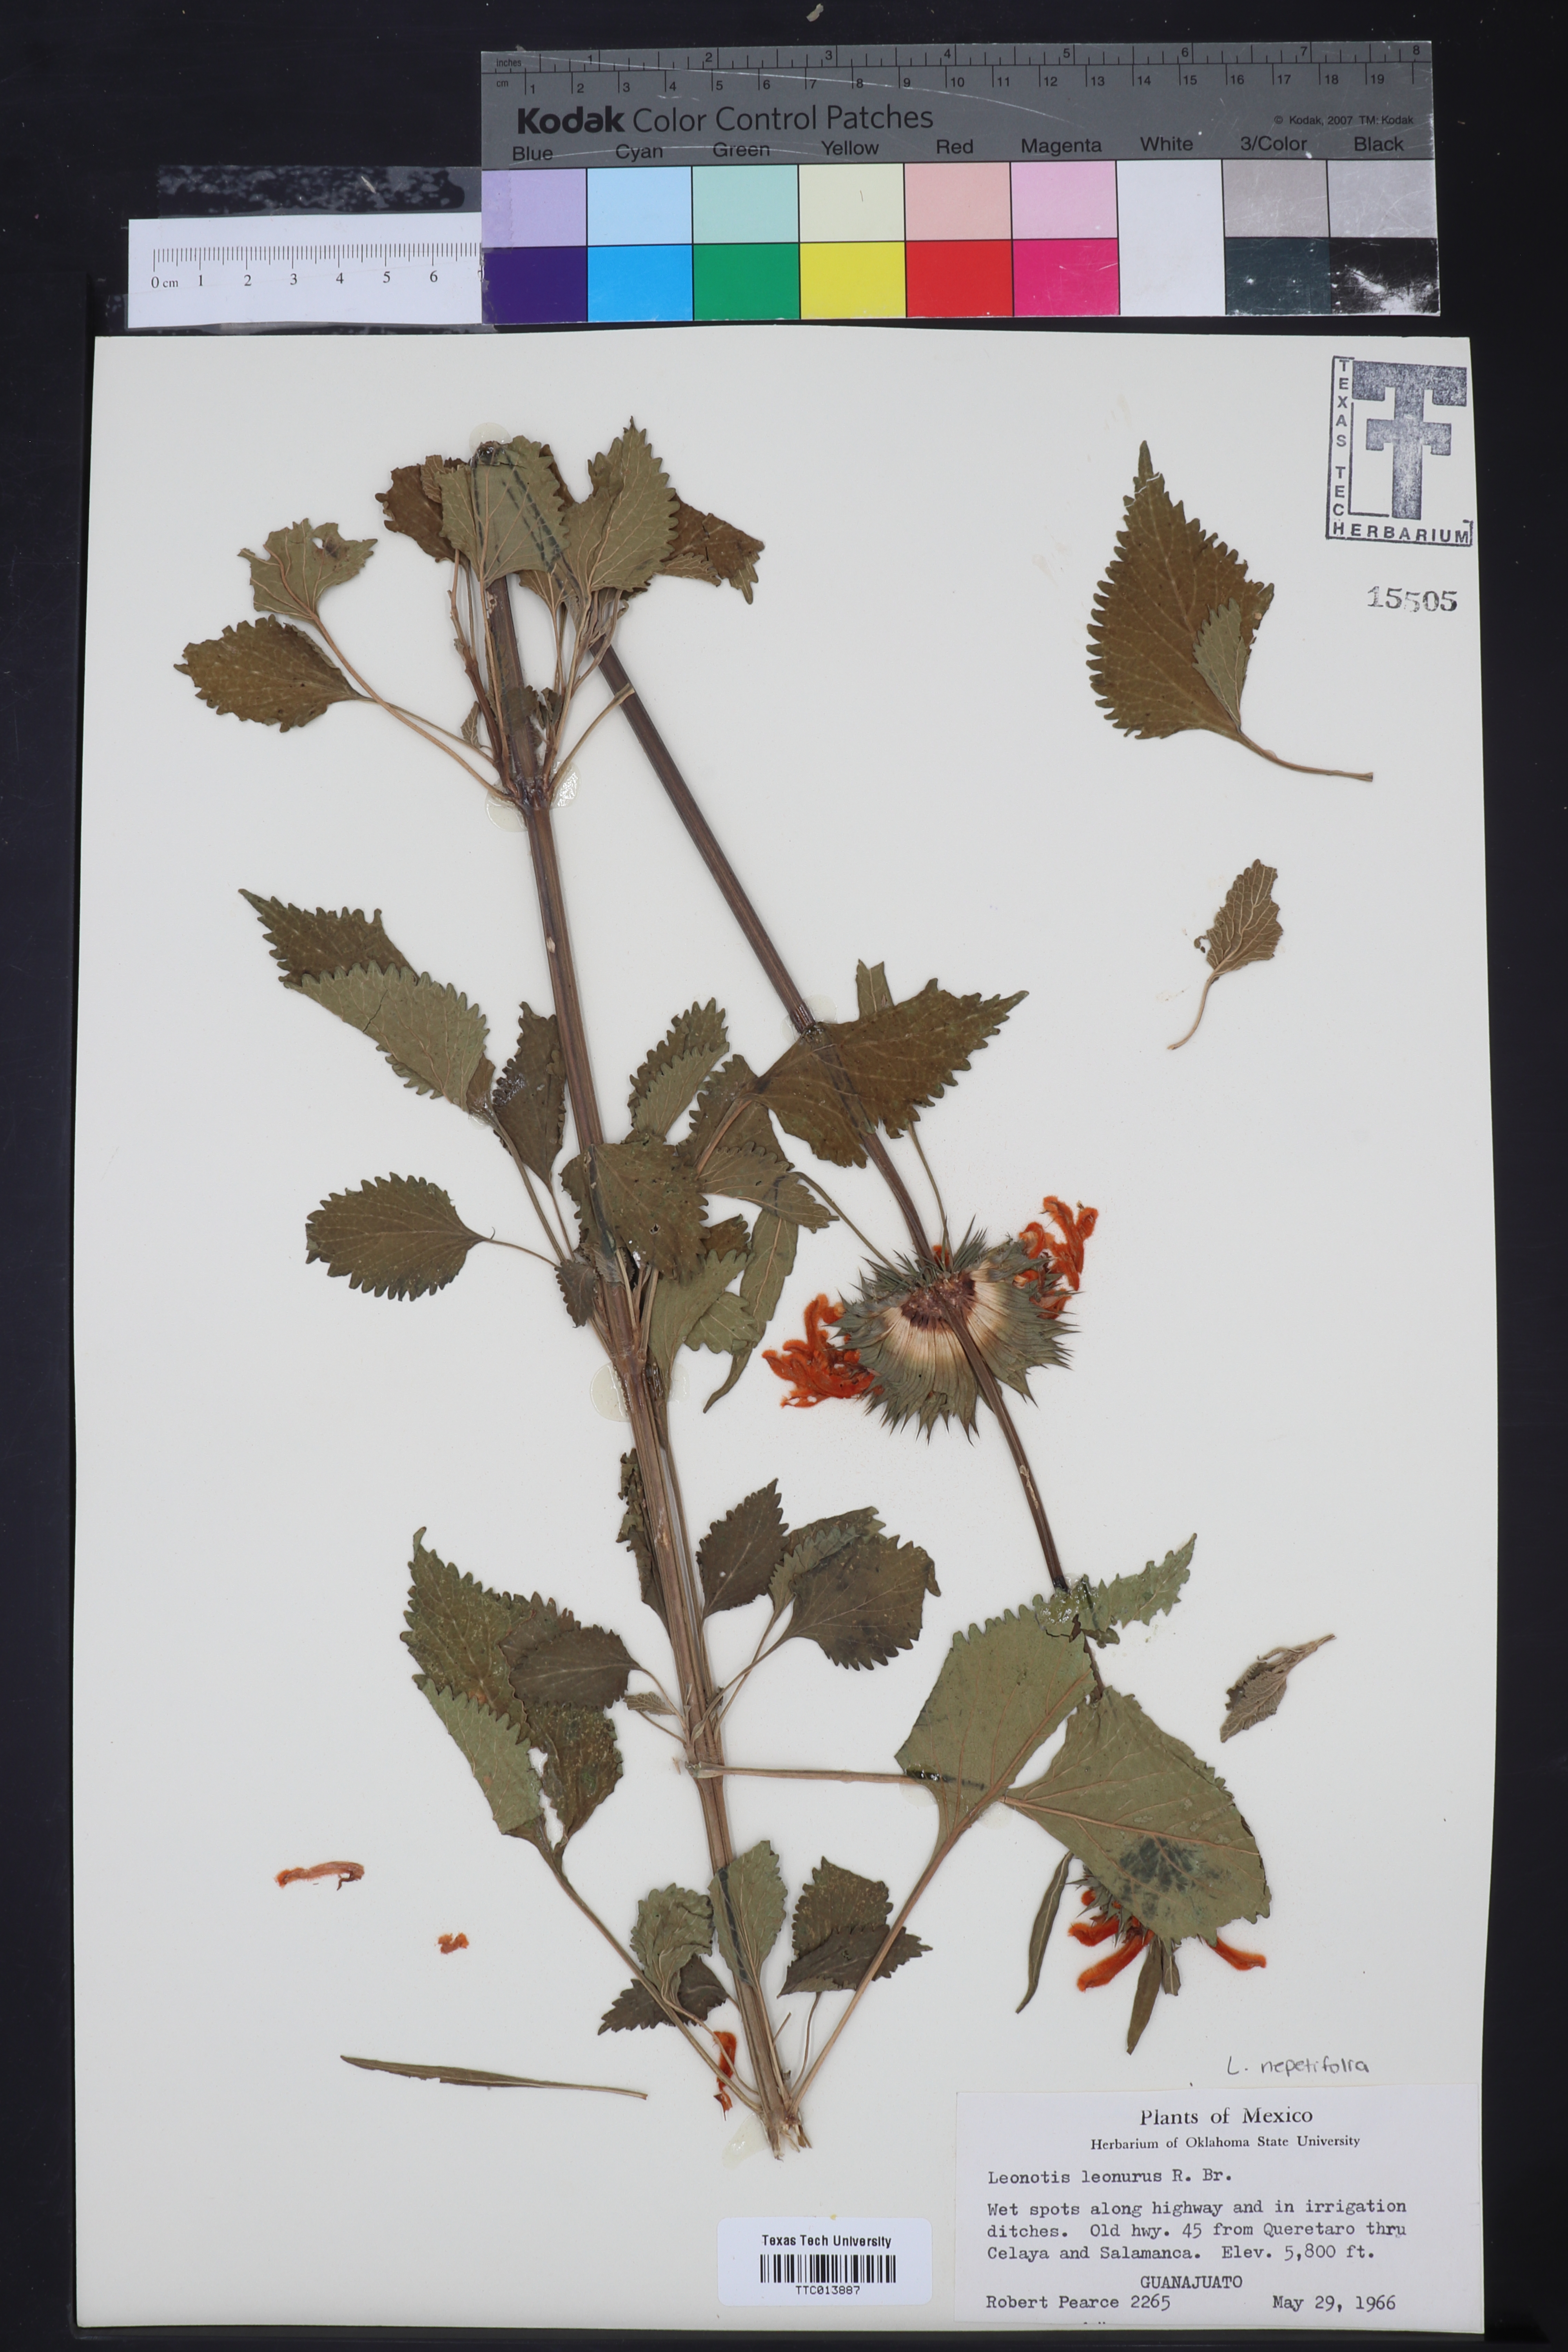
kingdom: Plantae
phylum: Tracheophyta
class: Magnoliopsida
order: Lamiales
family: Lamiaceae
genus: Leonotis
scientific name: Leonotis leonurus
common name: Lion's ear
